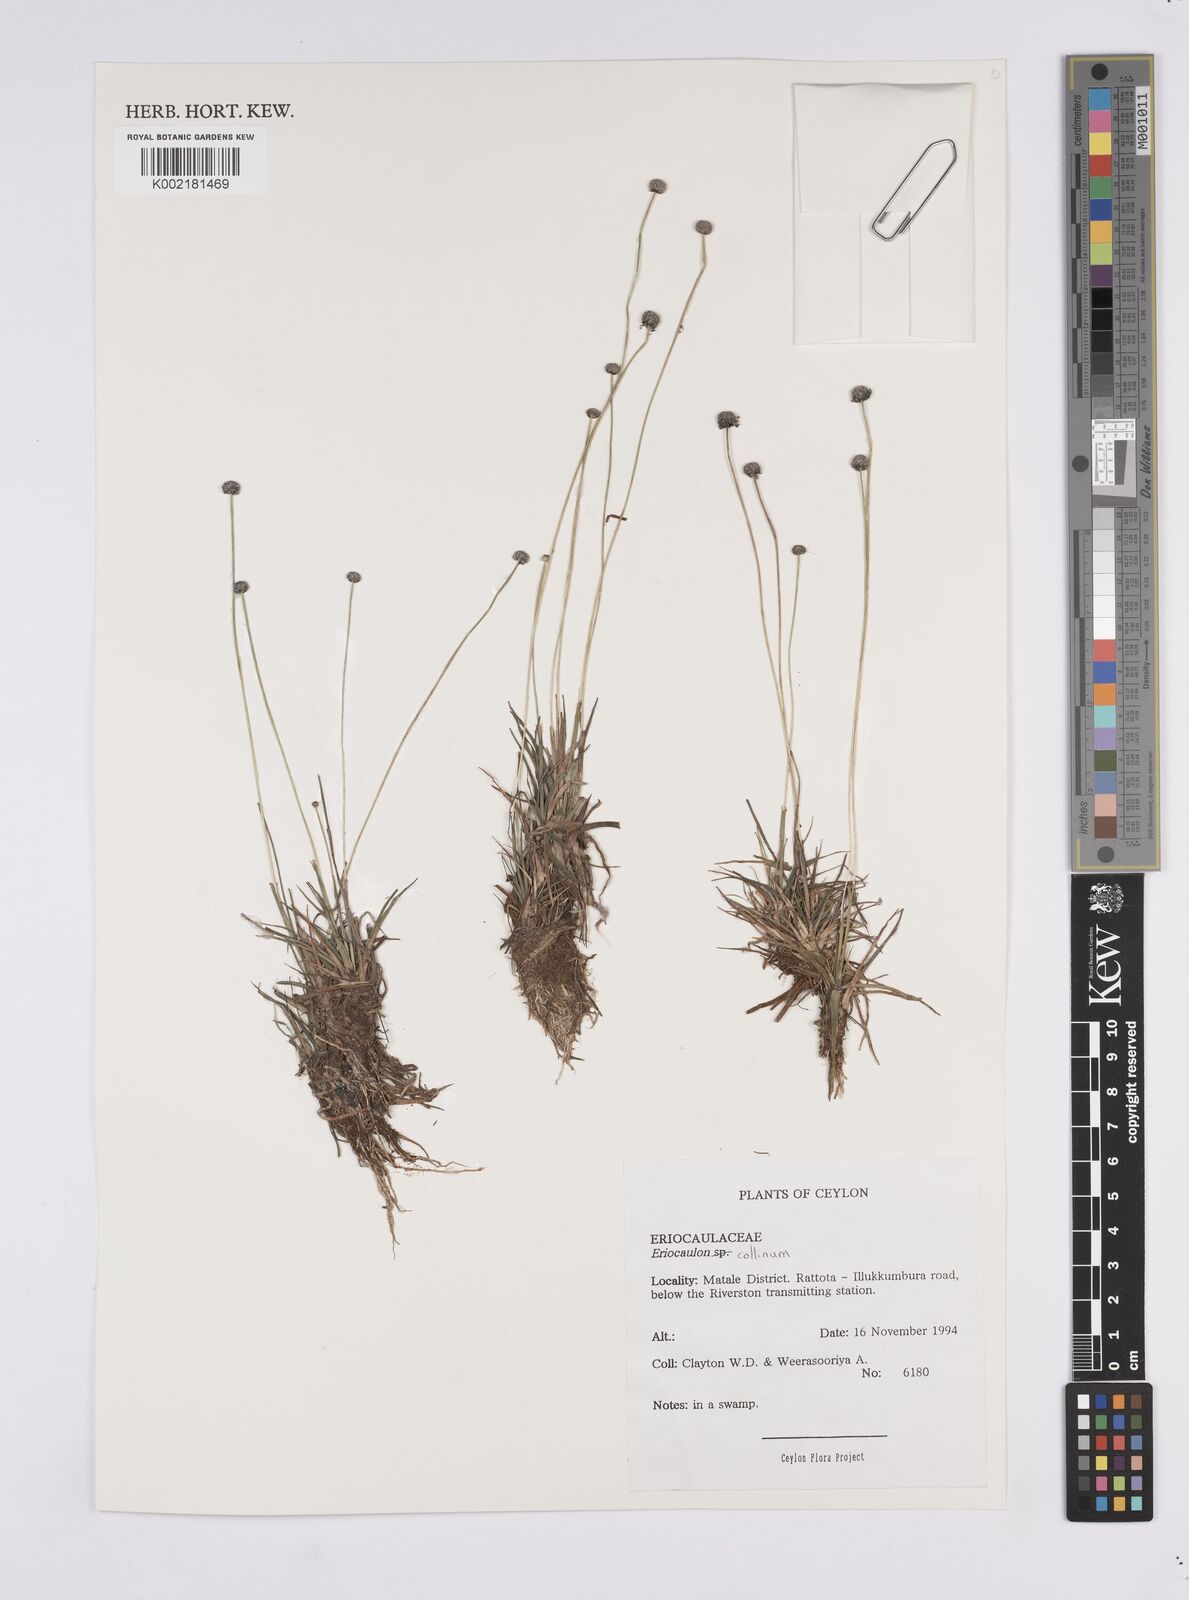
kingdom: Plantae
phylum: Tracheophyta
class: Liliopsida
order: Poales
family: Eriocaulaceae
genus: Eriocaulon
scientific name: Eriocaulon odoratum
